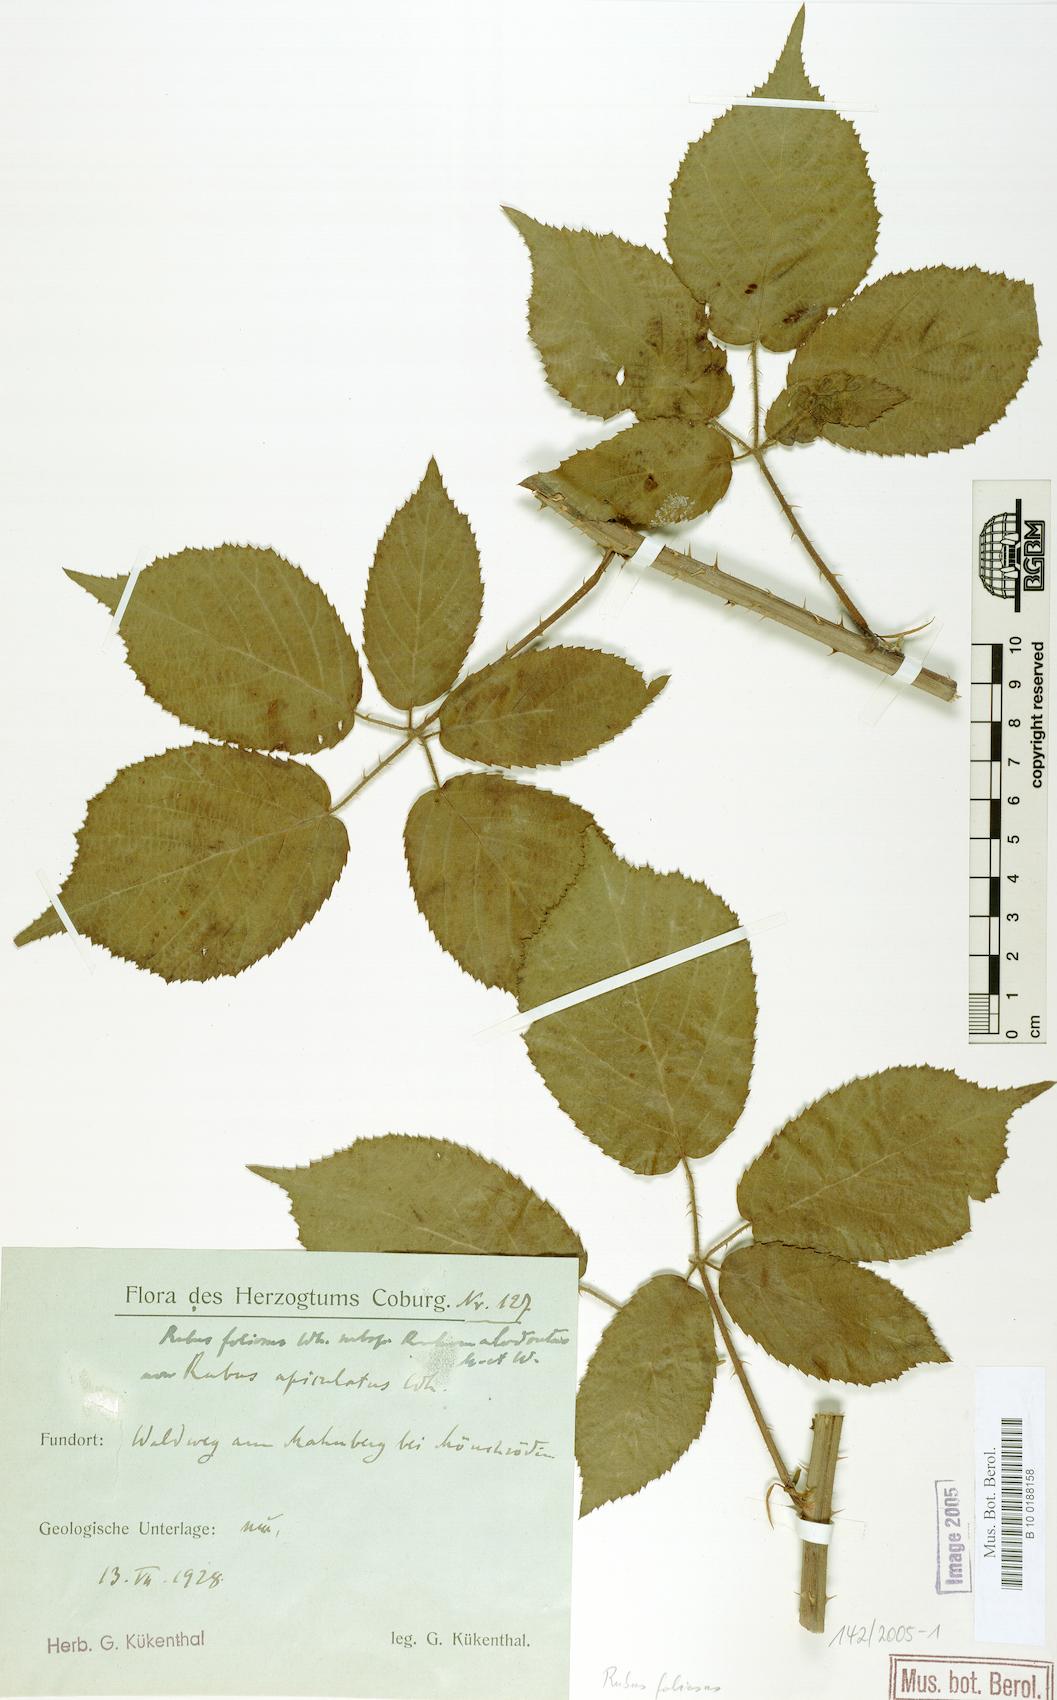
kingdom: Plantae
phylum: Tracheophyta
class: Magnoliopsida
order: Rosales
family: Rosaceae
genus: Rubus
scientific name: Rubus silvae-thuringiae
